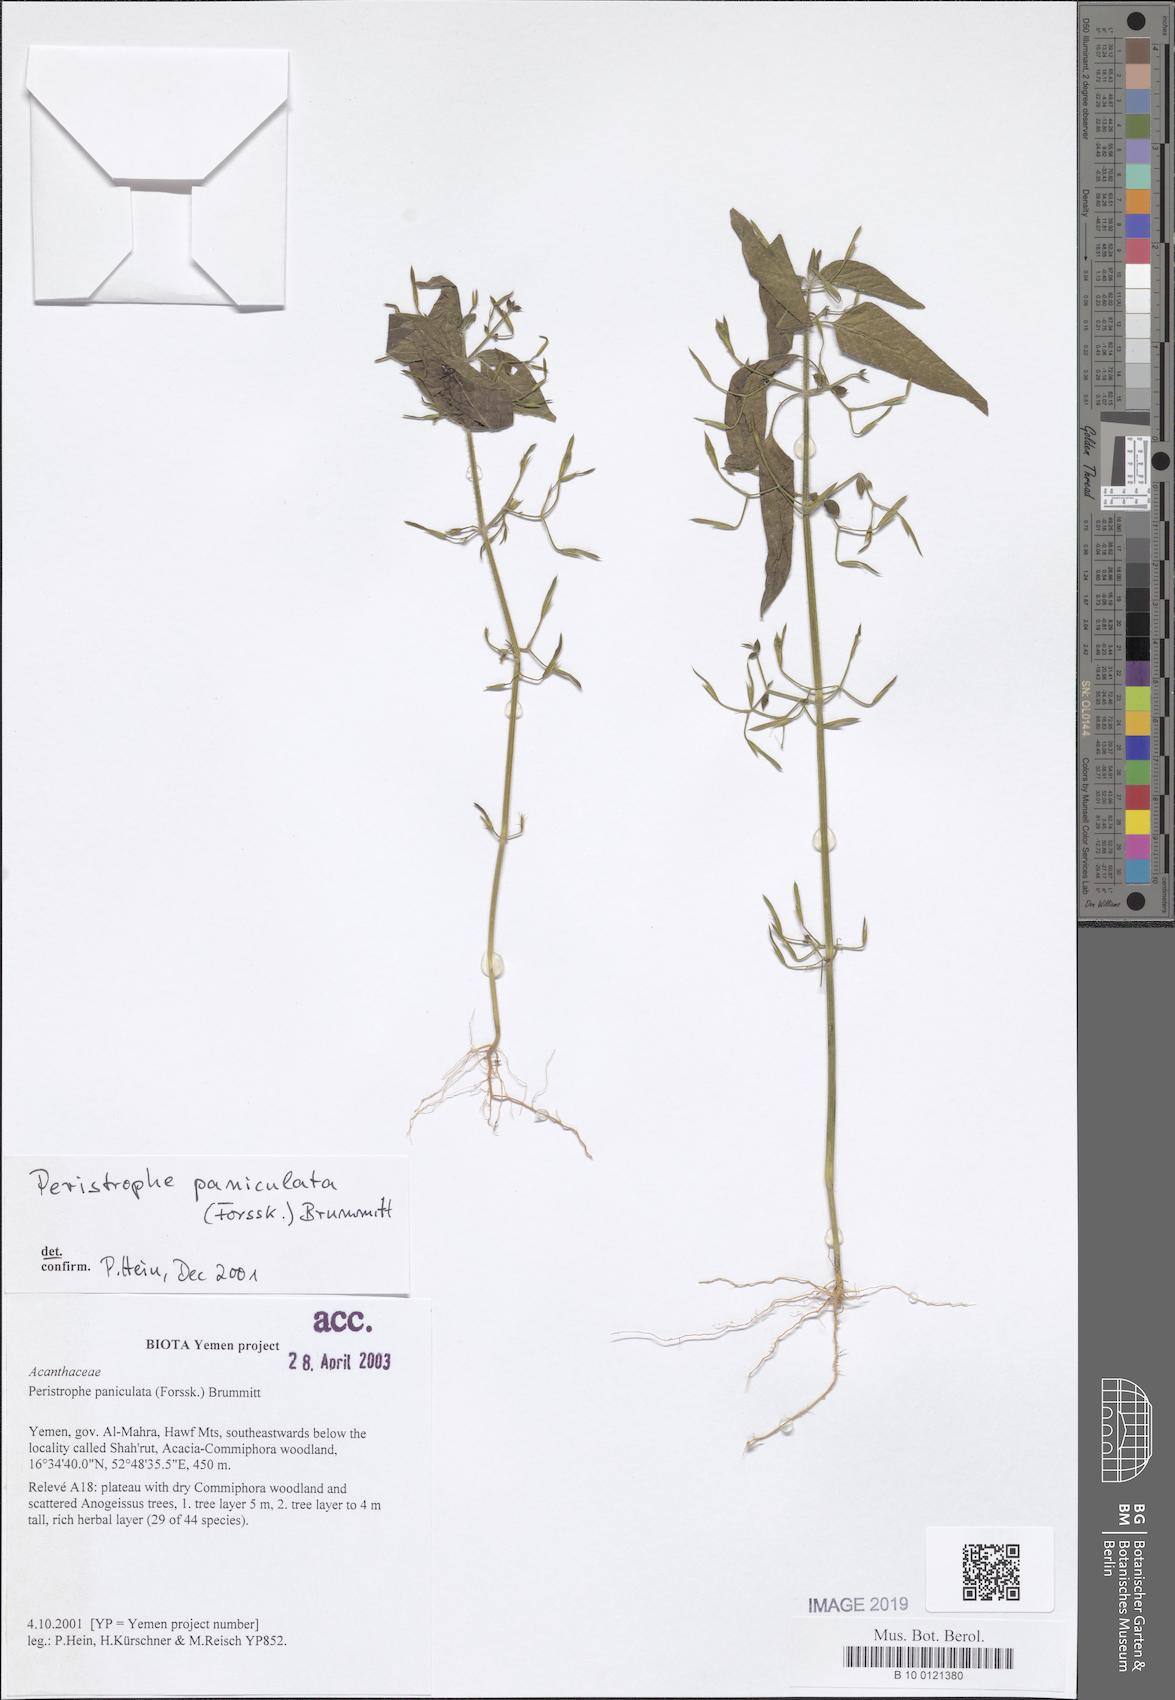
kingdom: Plantae
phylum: Tracheophyta
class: Magnoliopsida
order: Lamiales
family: Acanthaceae
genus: Dicliptera
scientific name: Dicliptera paniculata
